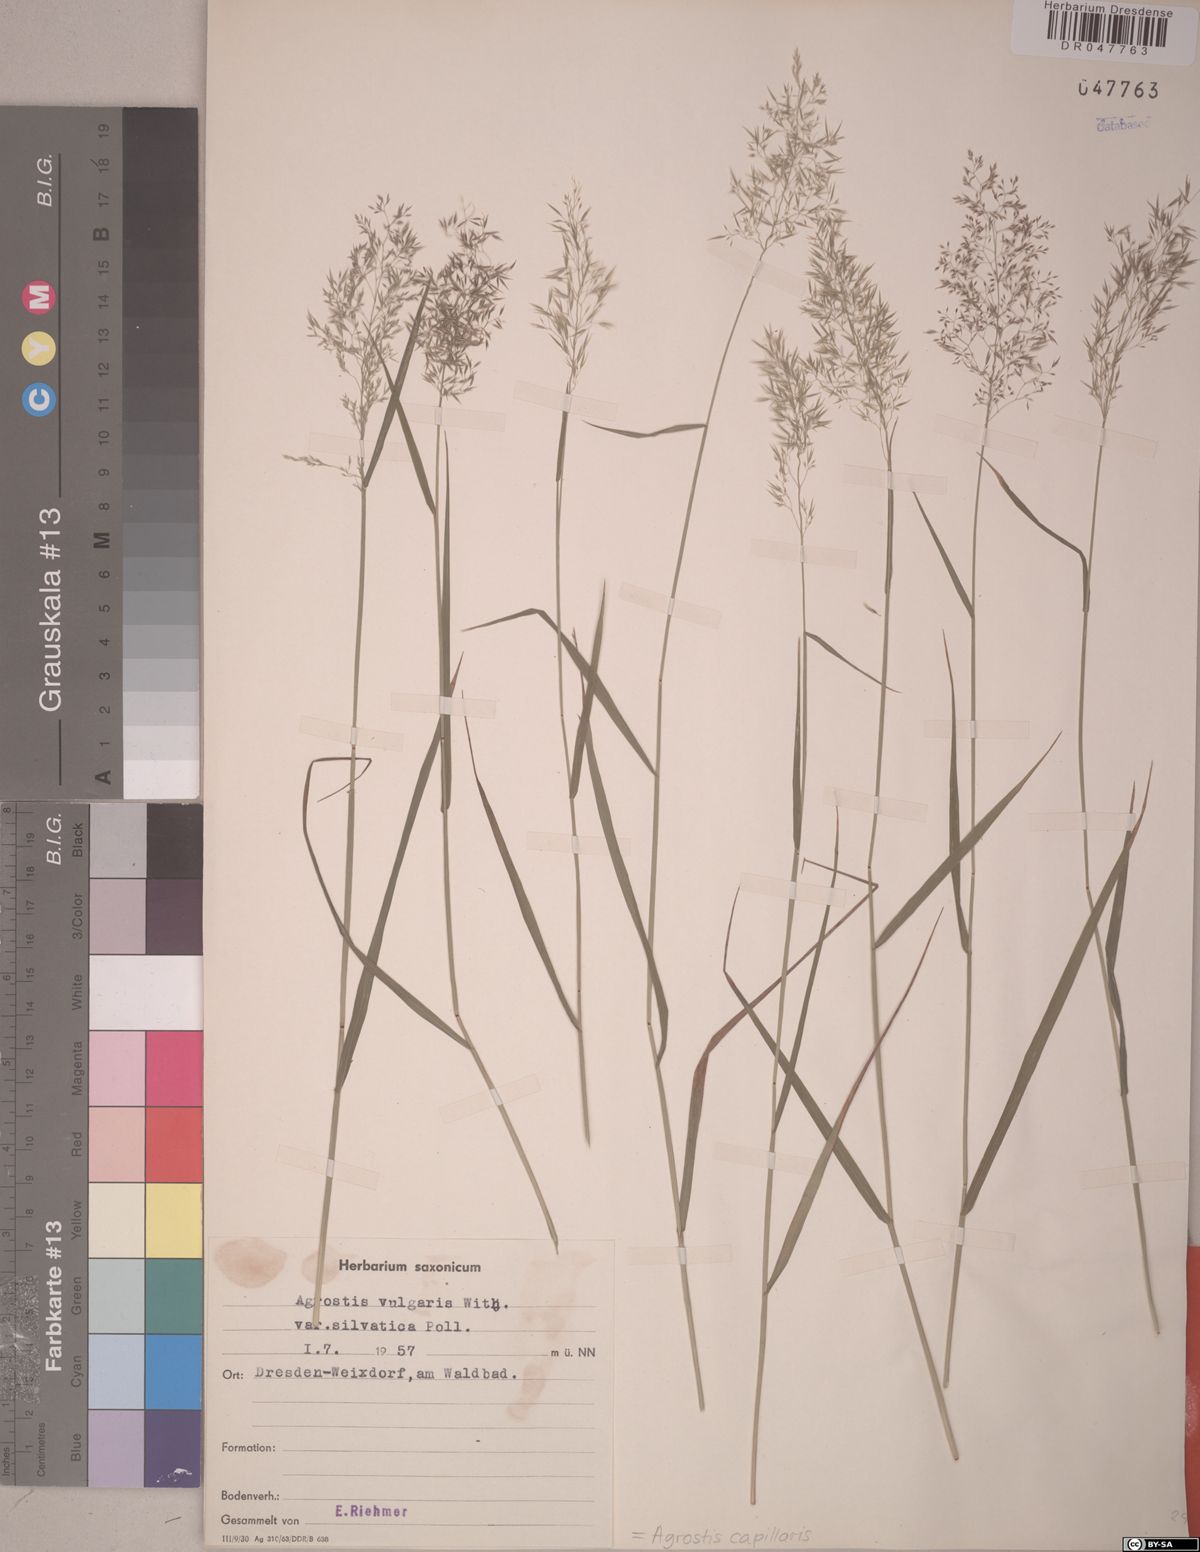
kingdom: Plantae
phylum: Tracheophyta
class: Liliopsida
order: Poales
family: Poaceae
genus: Agrostis
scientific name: Agrostis capillaris
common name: Colonial bentgrass
